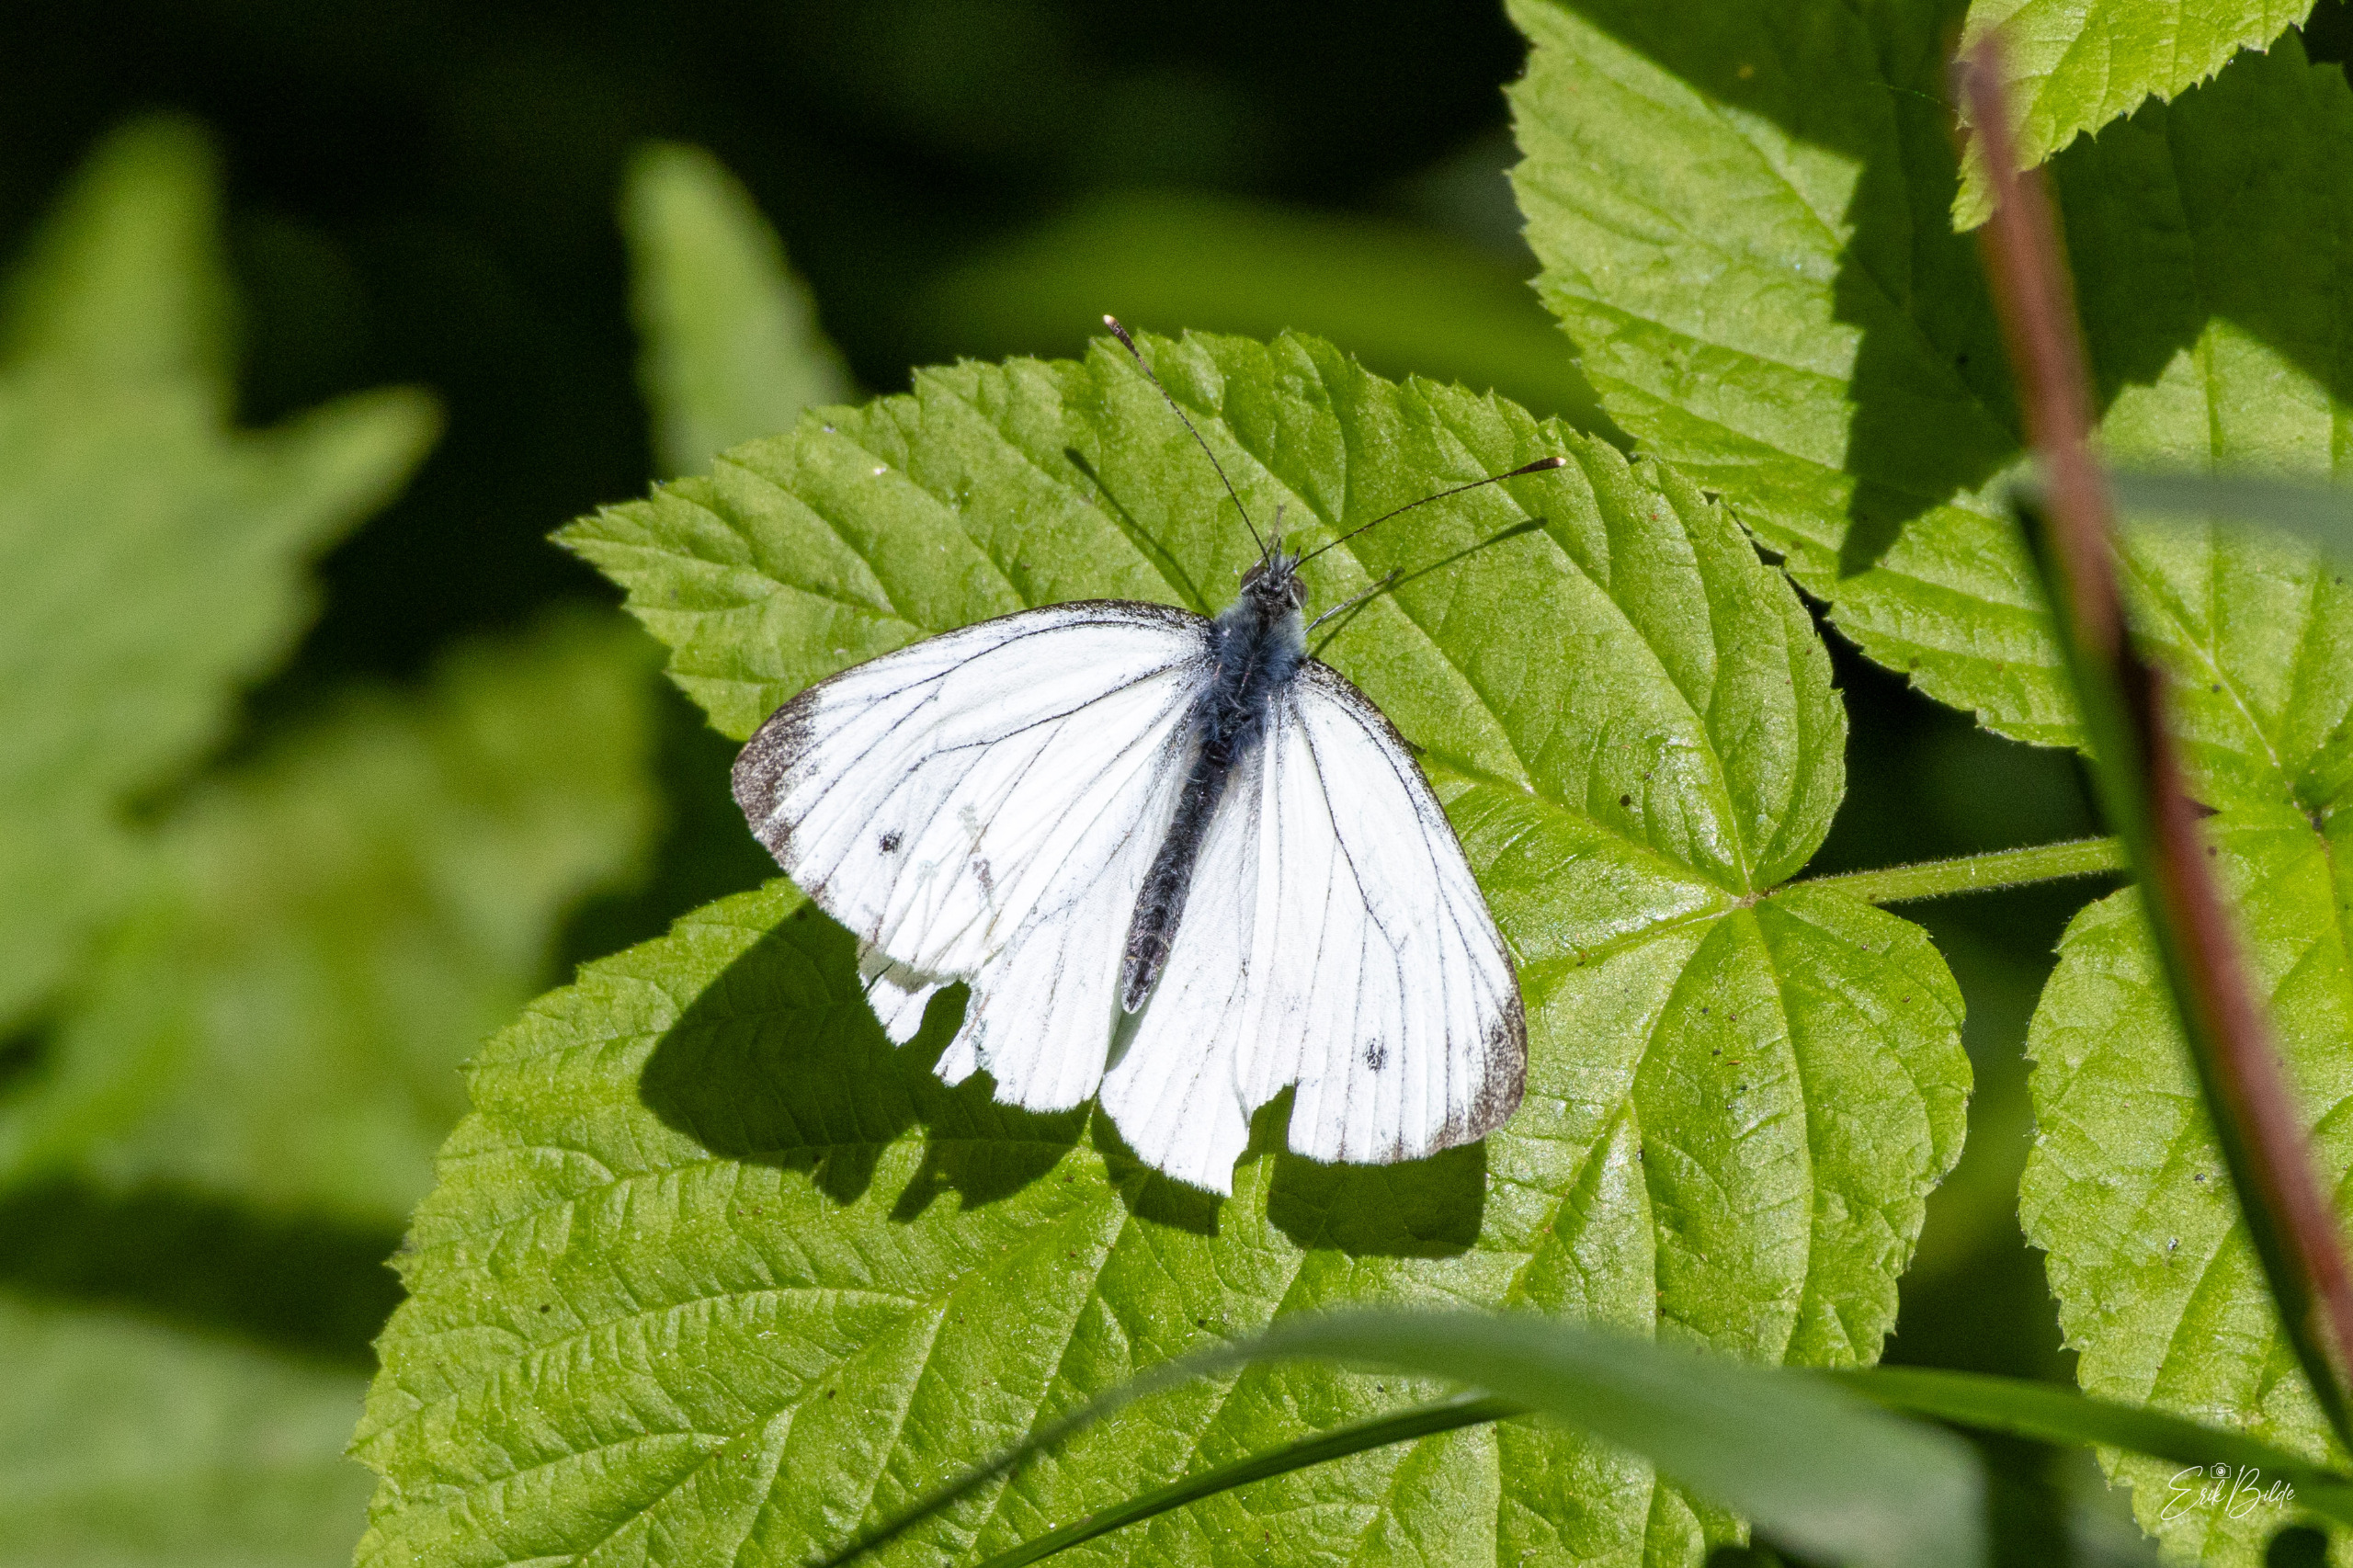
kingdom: Animalia
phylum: Arthropoda
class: Insecta
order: Lepidoptera
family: Pieridae
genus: Pieris
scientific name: Pieris napi
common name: Grønåret kålsommerfugl
